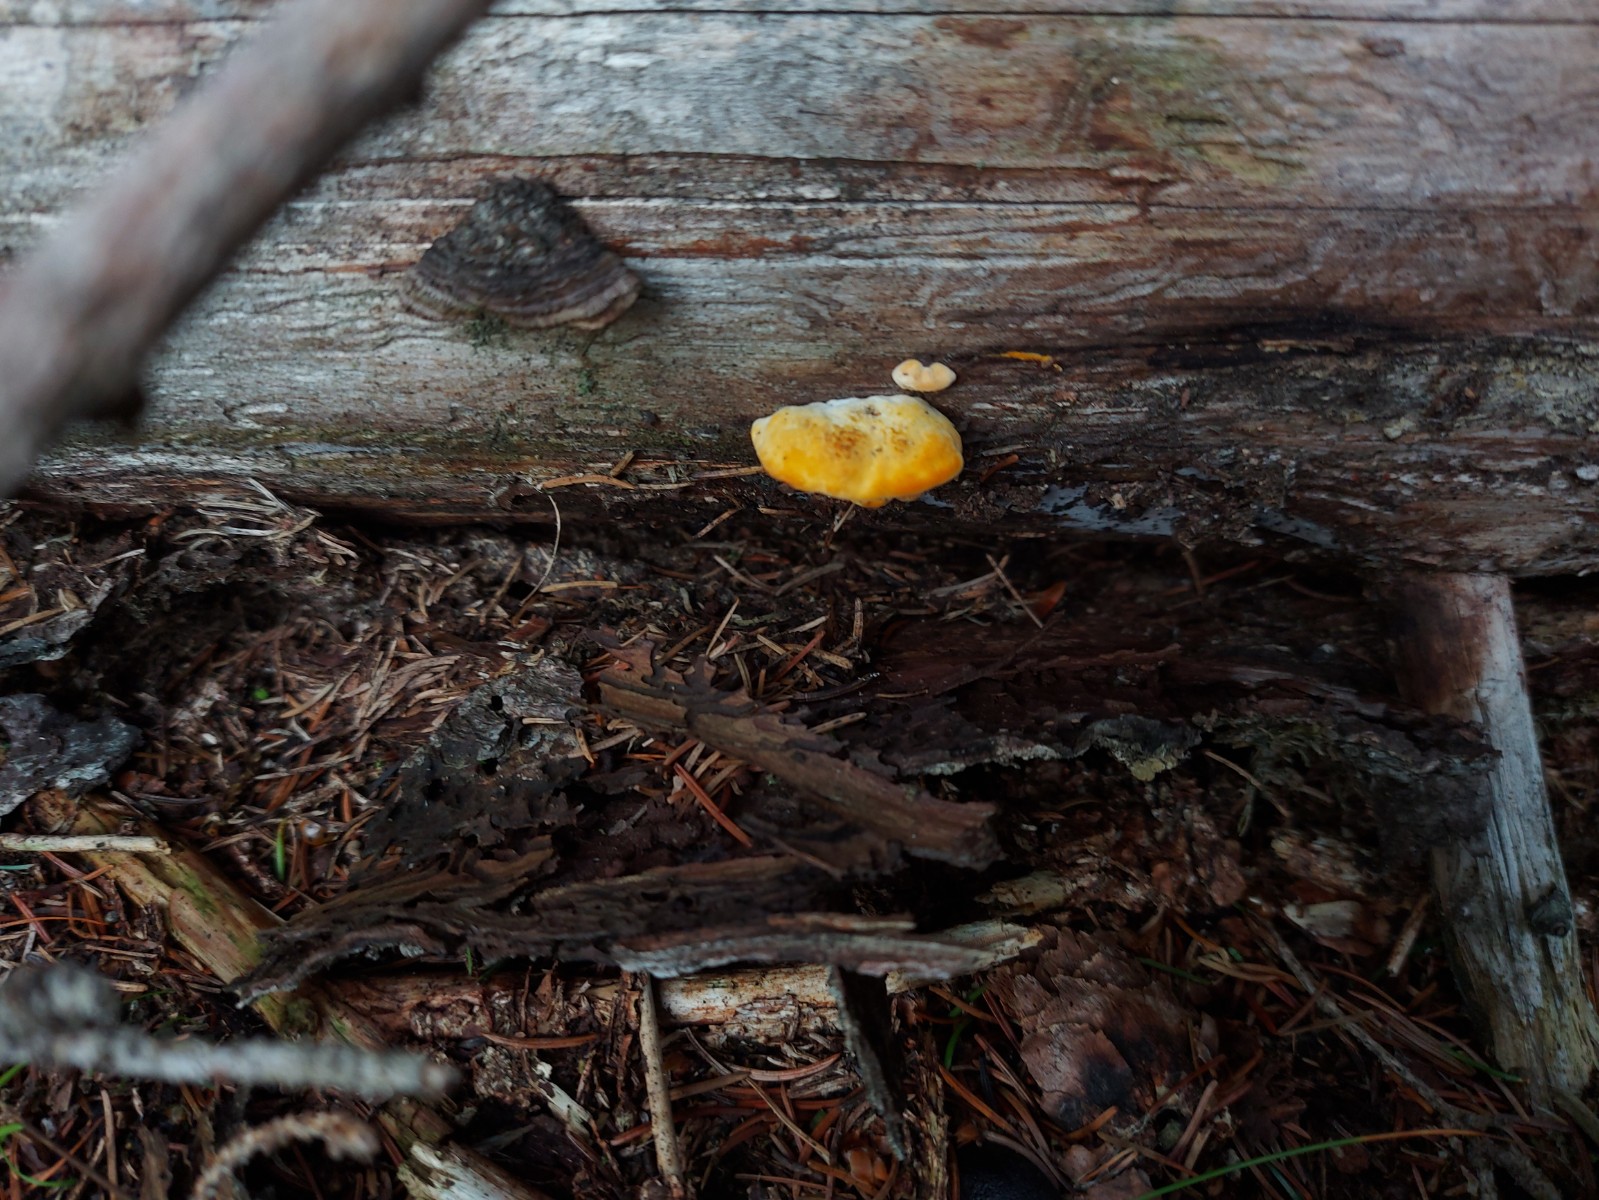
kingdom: Fungi
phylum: Basidiomycota
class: Agaricomycetes
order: Gloeophyllales
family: Gloeophyllaceae
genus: Gloeophyllum
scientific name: Gloeophyllum
